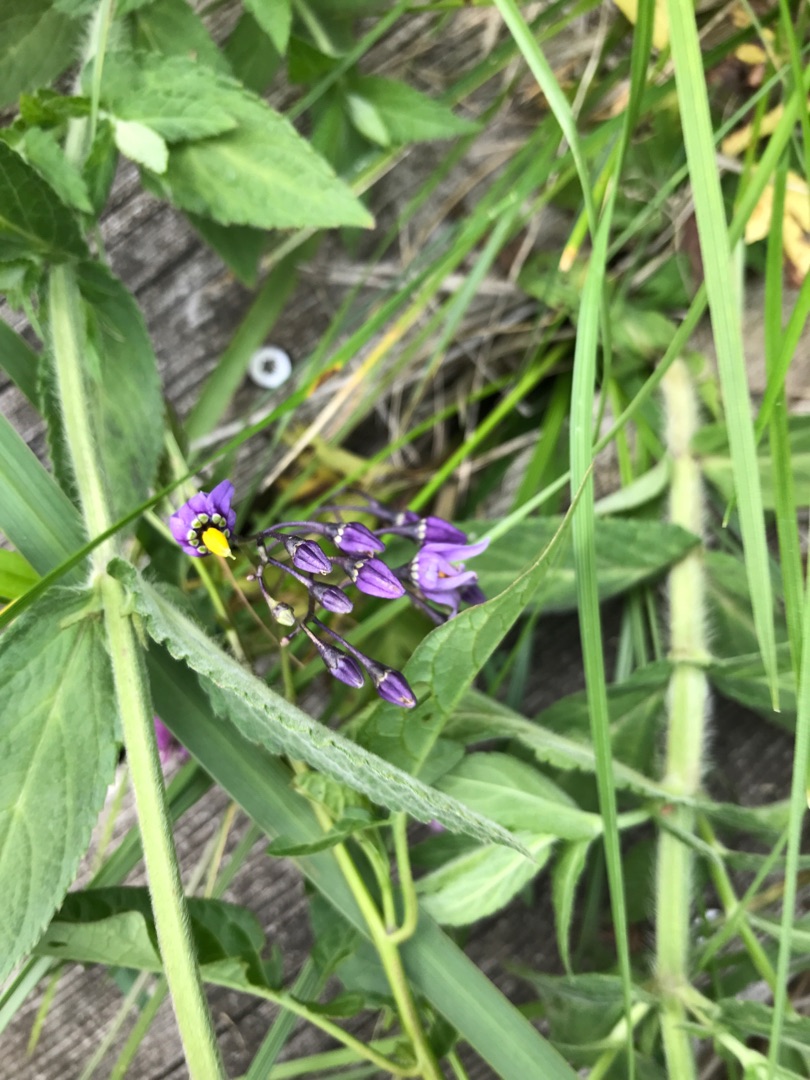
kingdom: Plantae
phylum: Tracheophyta
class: Magnoliopsida
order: Solanales
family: Solanaceae
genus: Solanum
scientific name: Solanum dulcamara
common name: Bittersød natskygge
